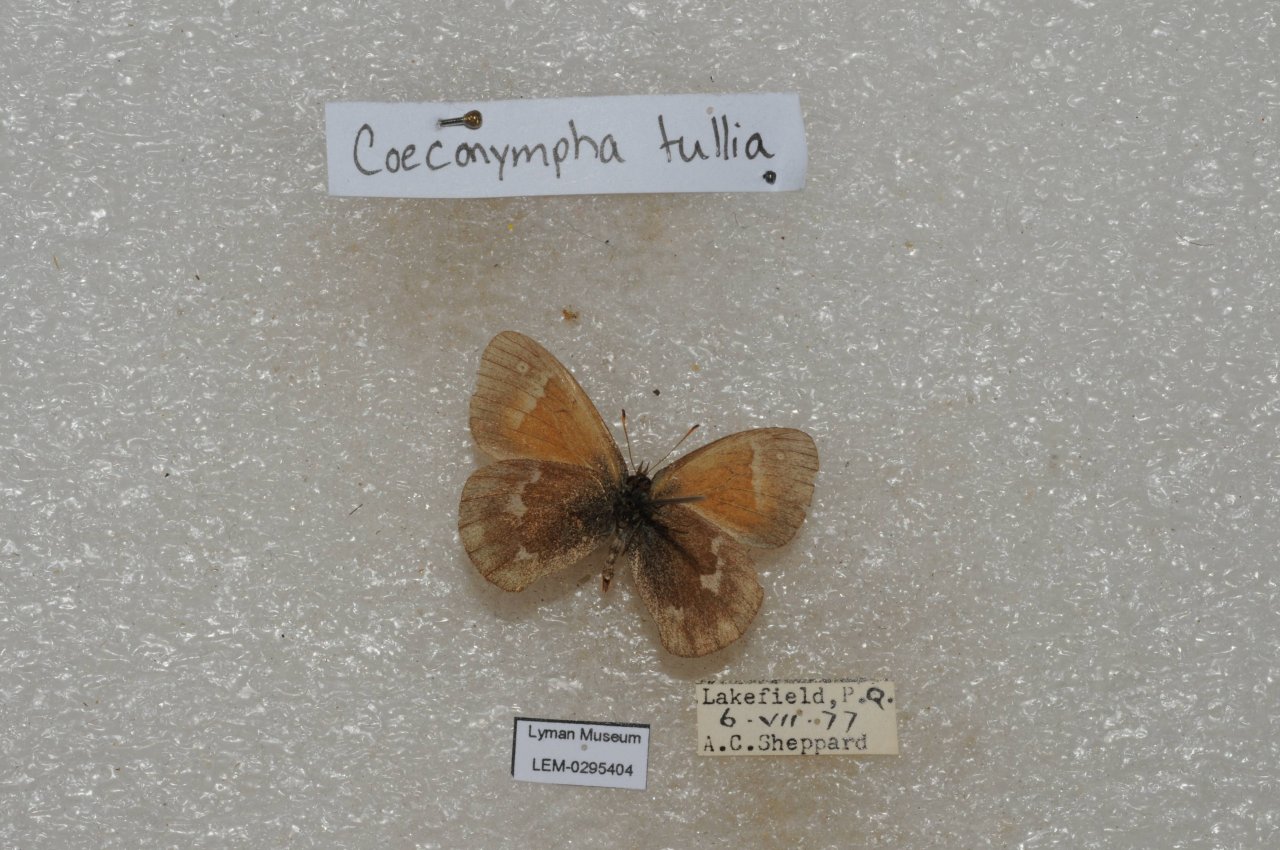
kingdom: Animalia
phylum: Arthropoda
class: Insecta
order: Lepidoptera
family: Nymphalidae
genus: Coenonympha
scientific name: Coenonympha tullia
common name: Large Heath
